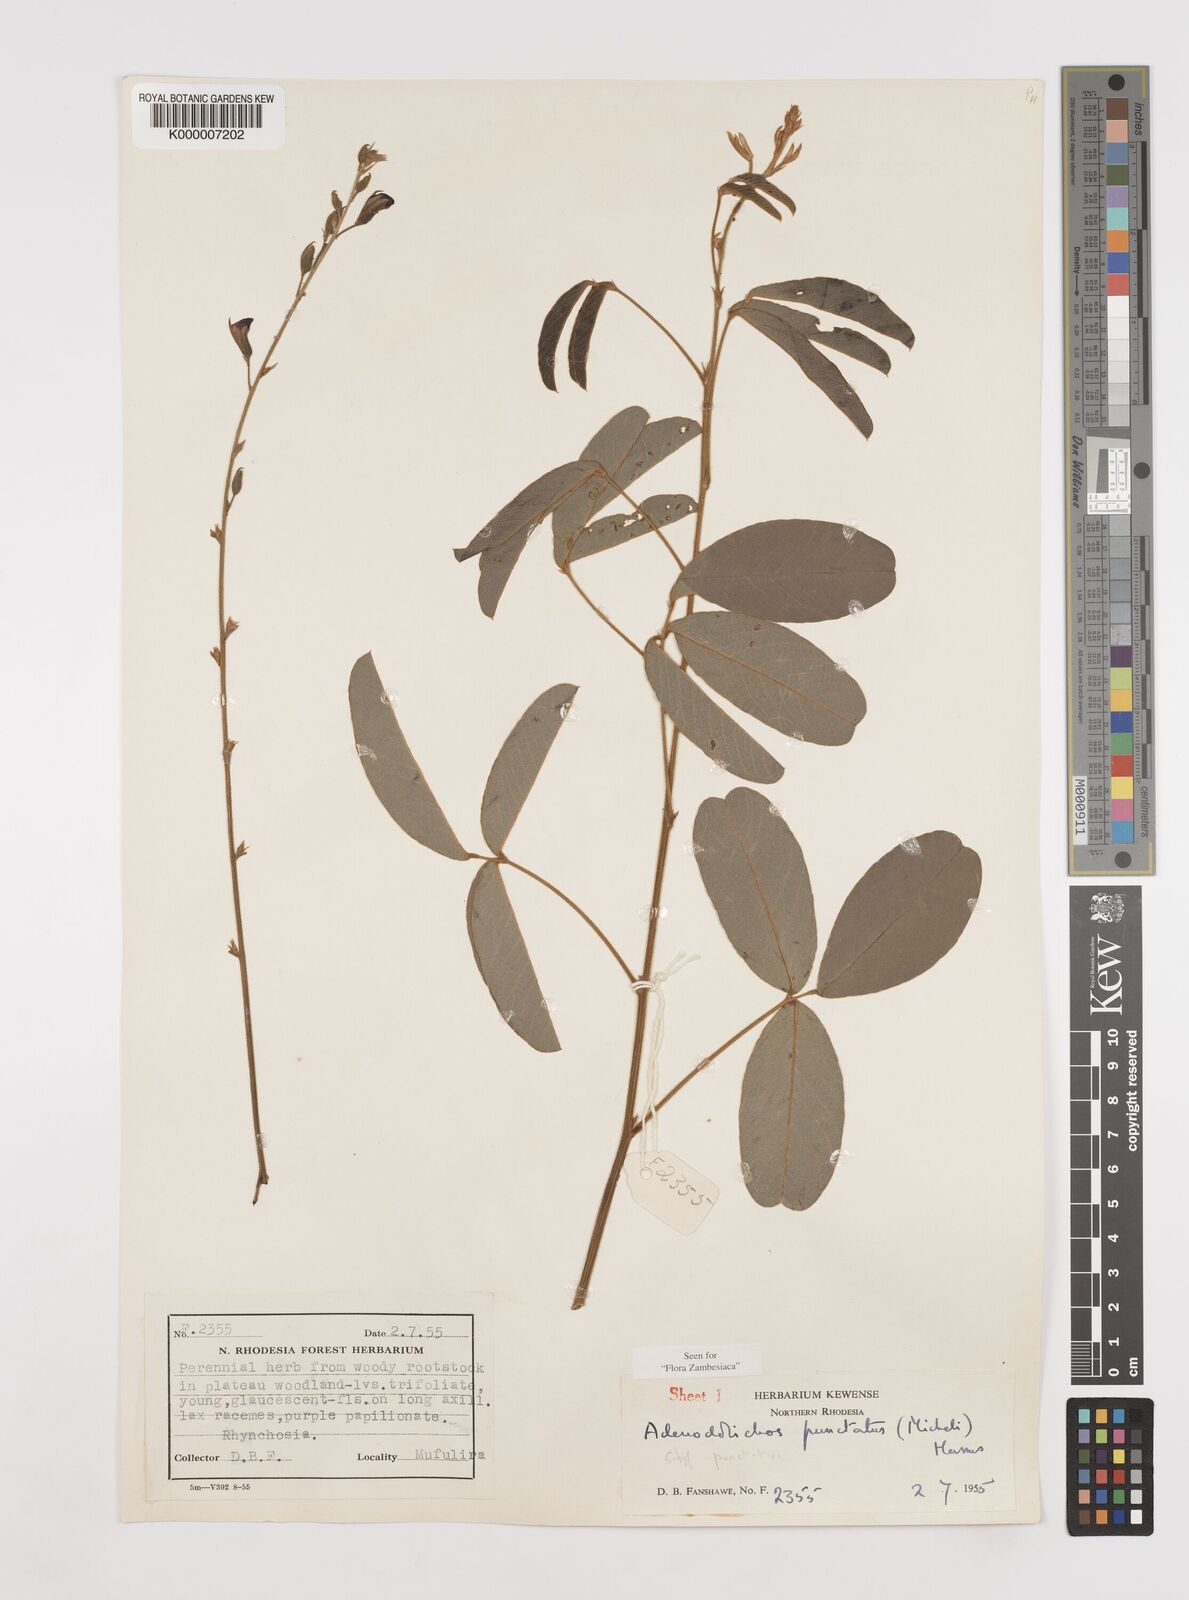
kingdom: Plantae
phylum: Tracheophyta
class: Magnoliopsida
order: Fabales
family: Fabaceae
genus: Adenodolichos
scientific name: Adenodolichos punctatus
